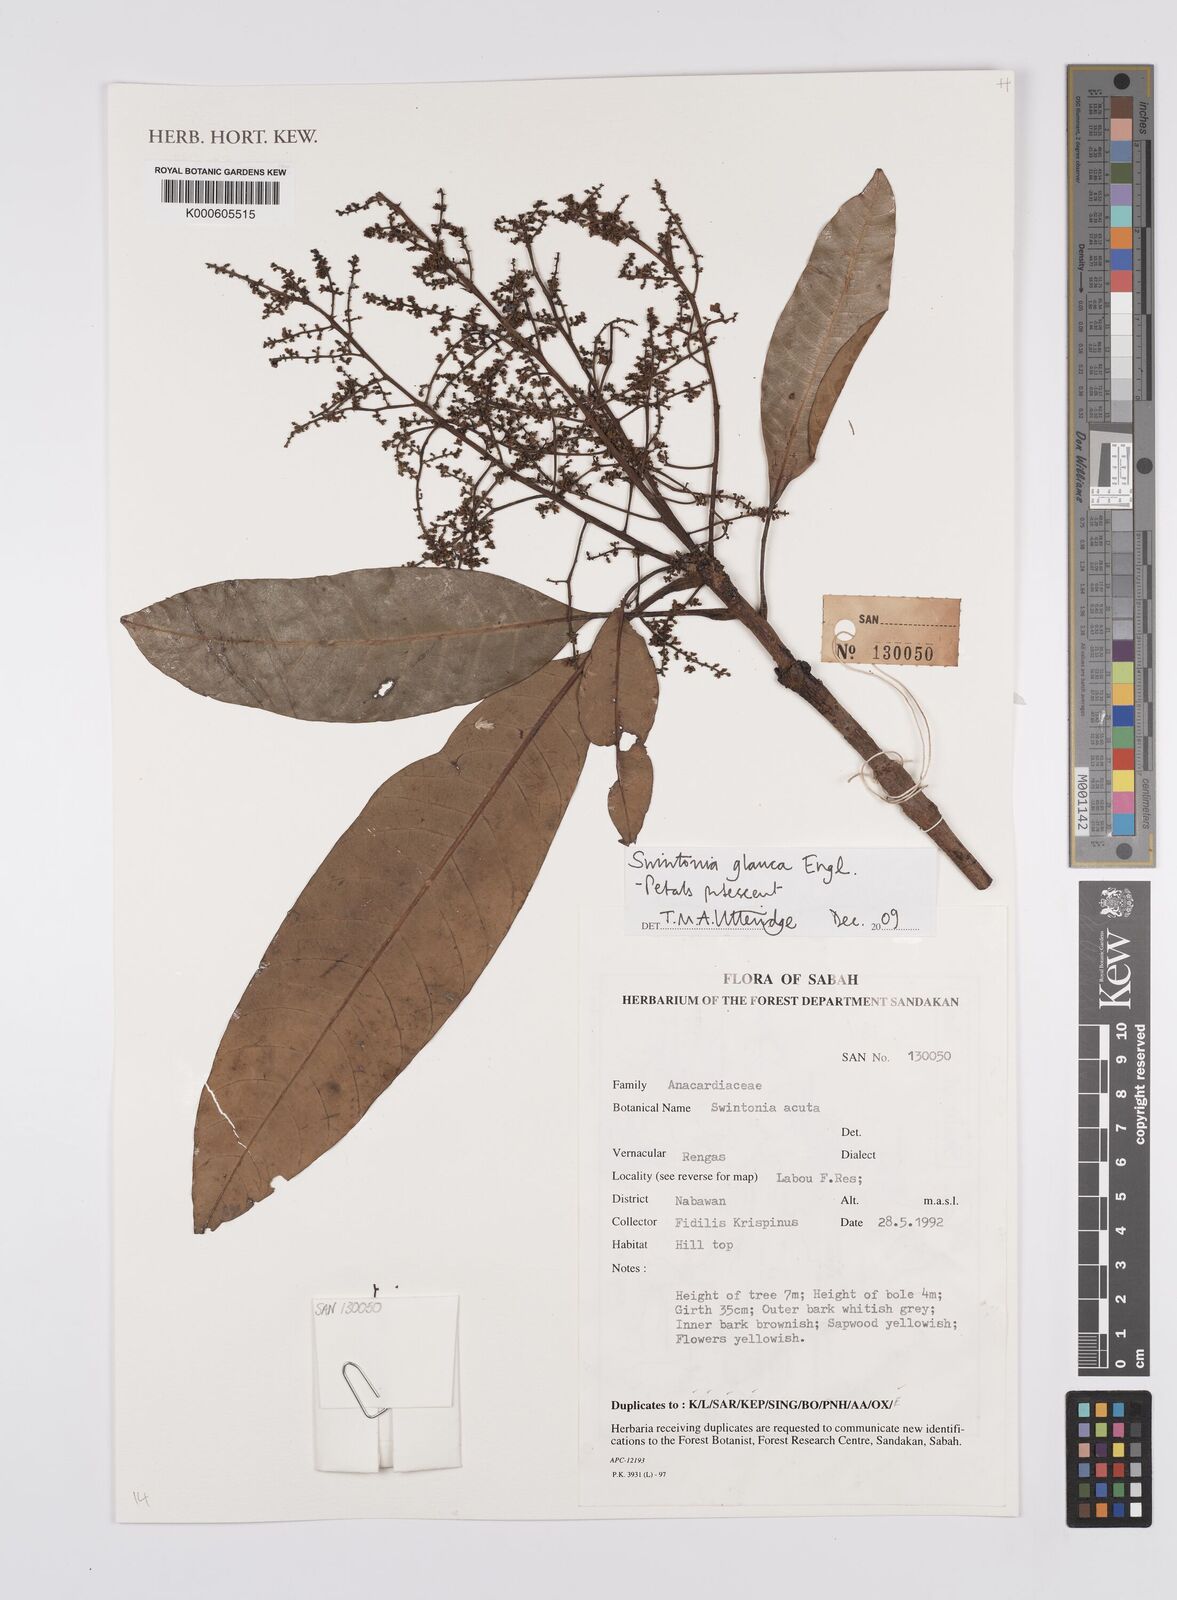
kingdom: Plantae
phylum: Tracheophyta
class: Magnoliopsida
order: Sapindales
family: Anacardiaceae
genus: Swintonia
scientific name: Swintonia glauca
